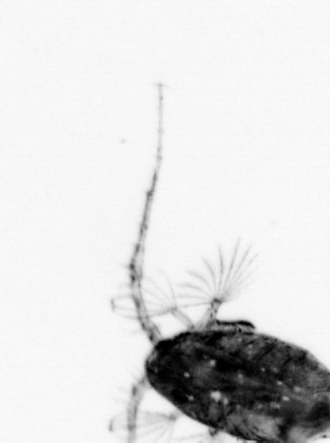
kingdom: Animalia
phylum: Arthropoda
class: Copepoda
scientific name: Copepoda
